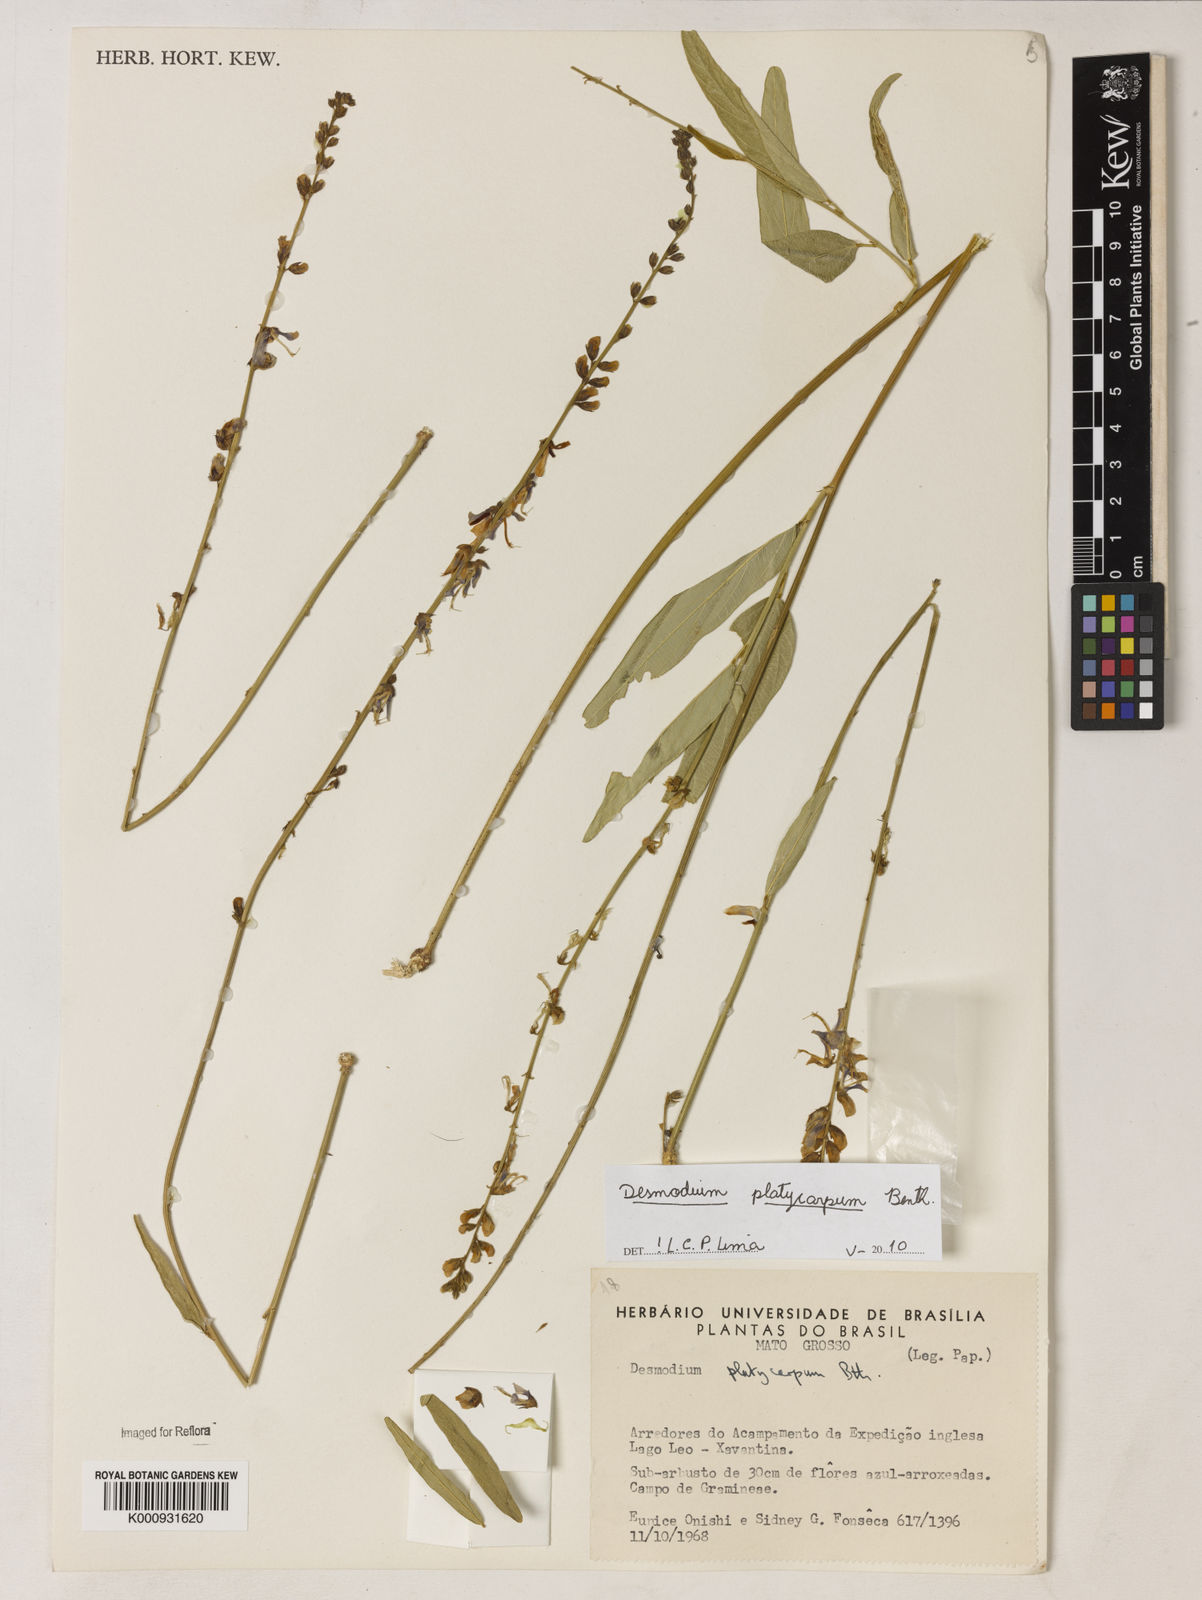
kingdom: Plantae
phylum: Tracheophyta
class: Magnoliopsida
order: Fabales
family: Fabaceae
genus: Desmodium
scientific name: Desmodium platycarpum
